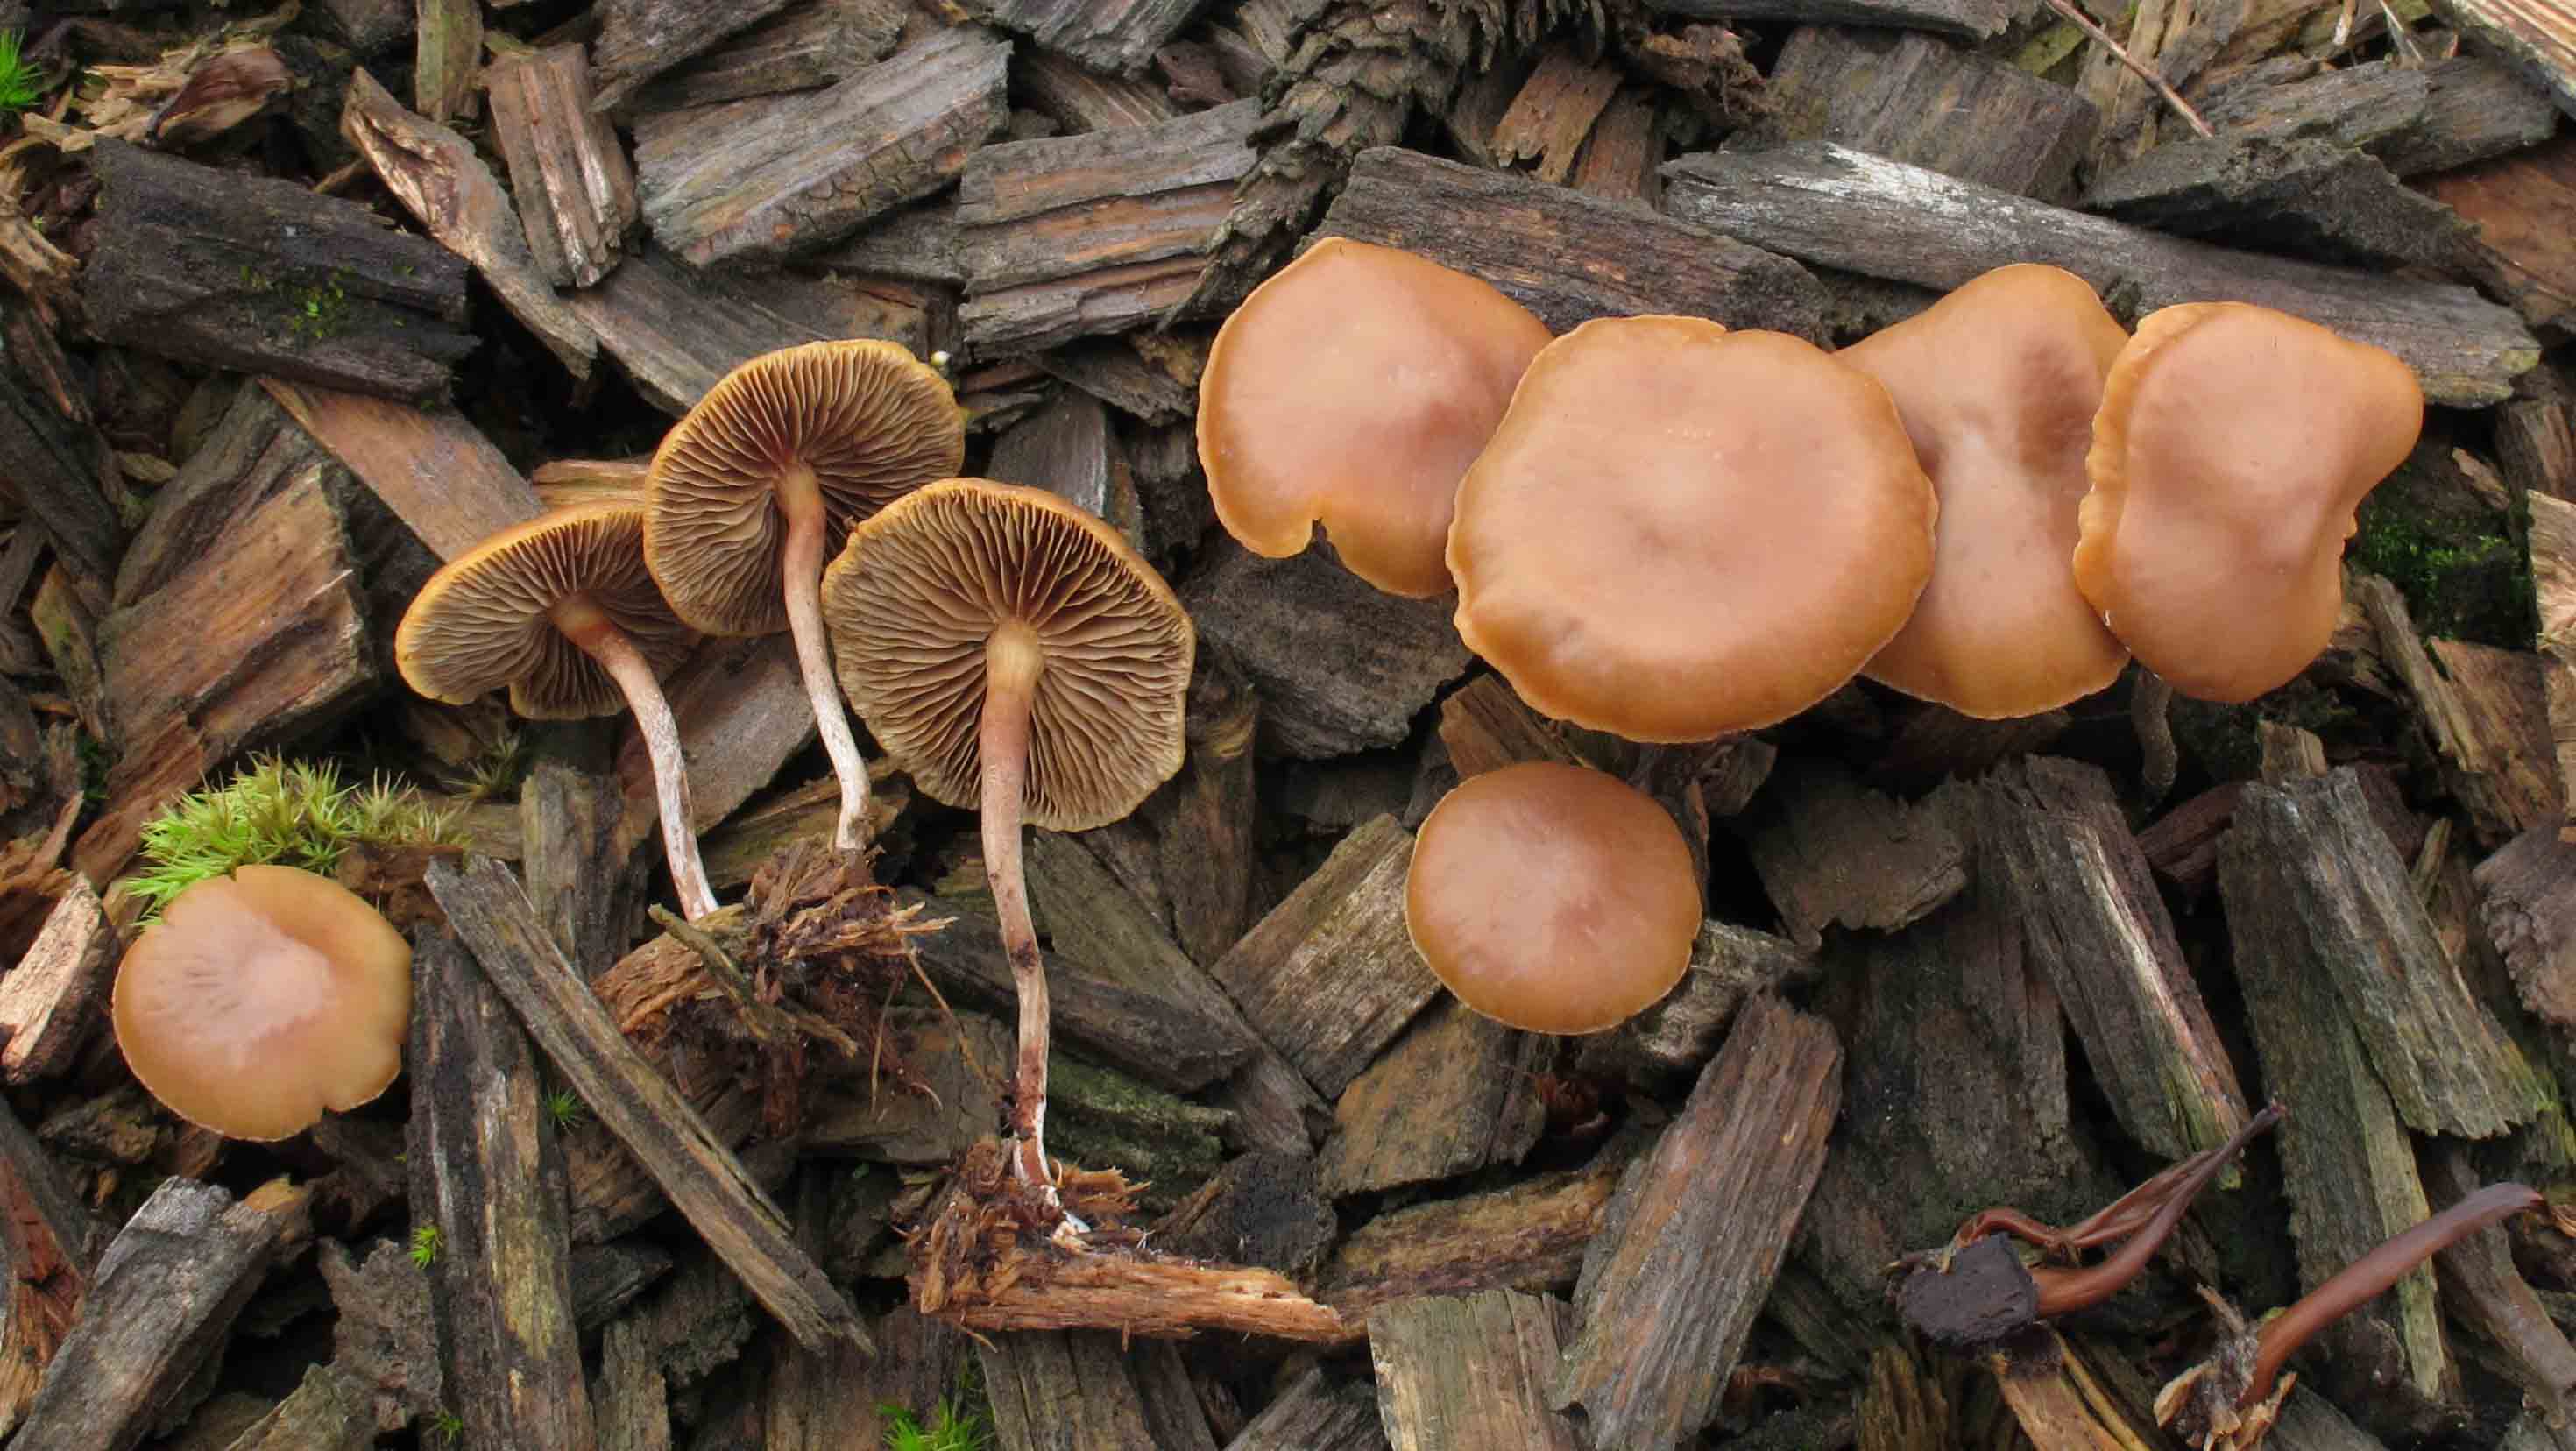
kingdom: Fungi
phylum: Basidiomycota
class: Agaricomycetes
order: Agaricales
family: Strophariaceae
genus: Hypholoma
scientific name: Hypholoma marginatum
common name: enlig svovlhat
